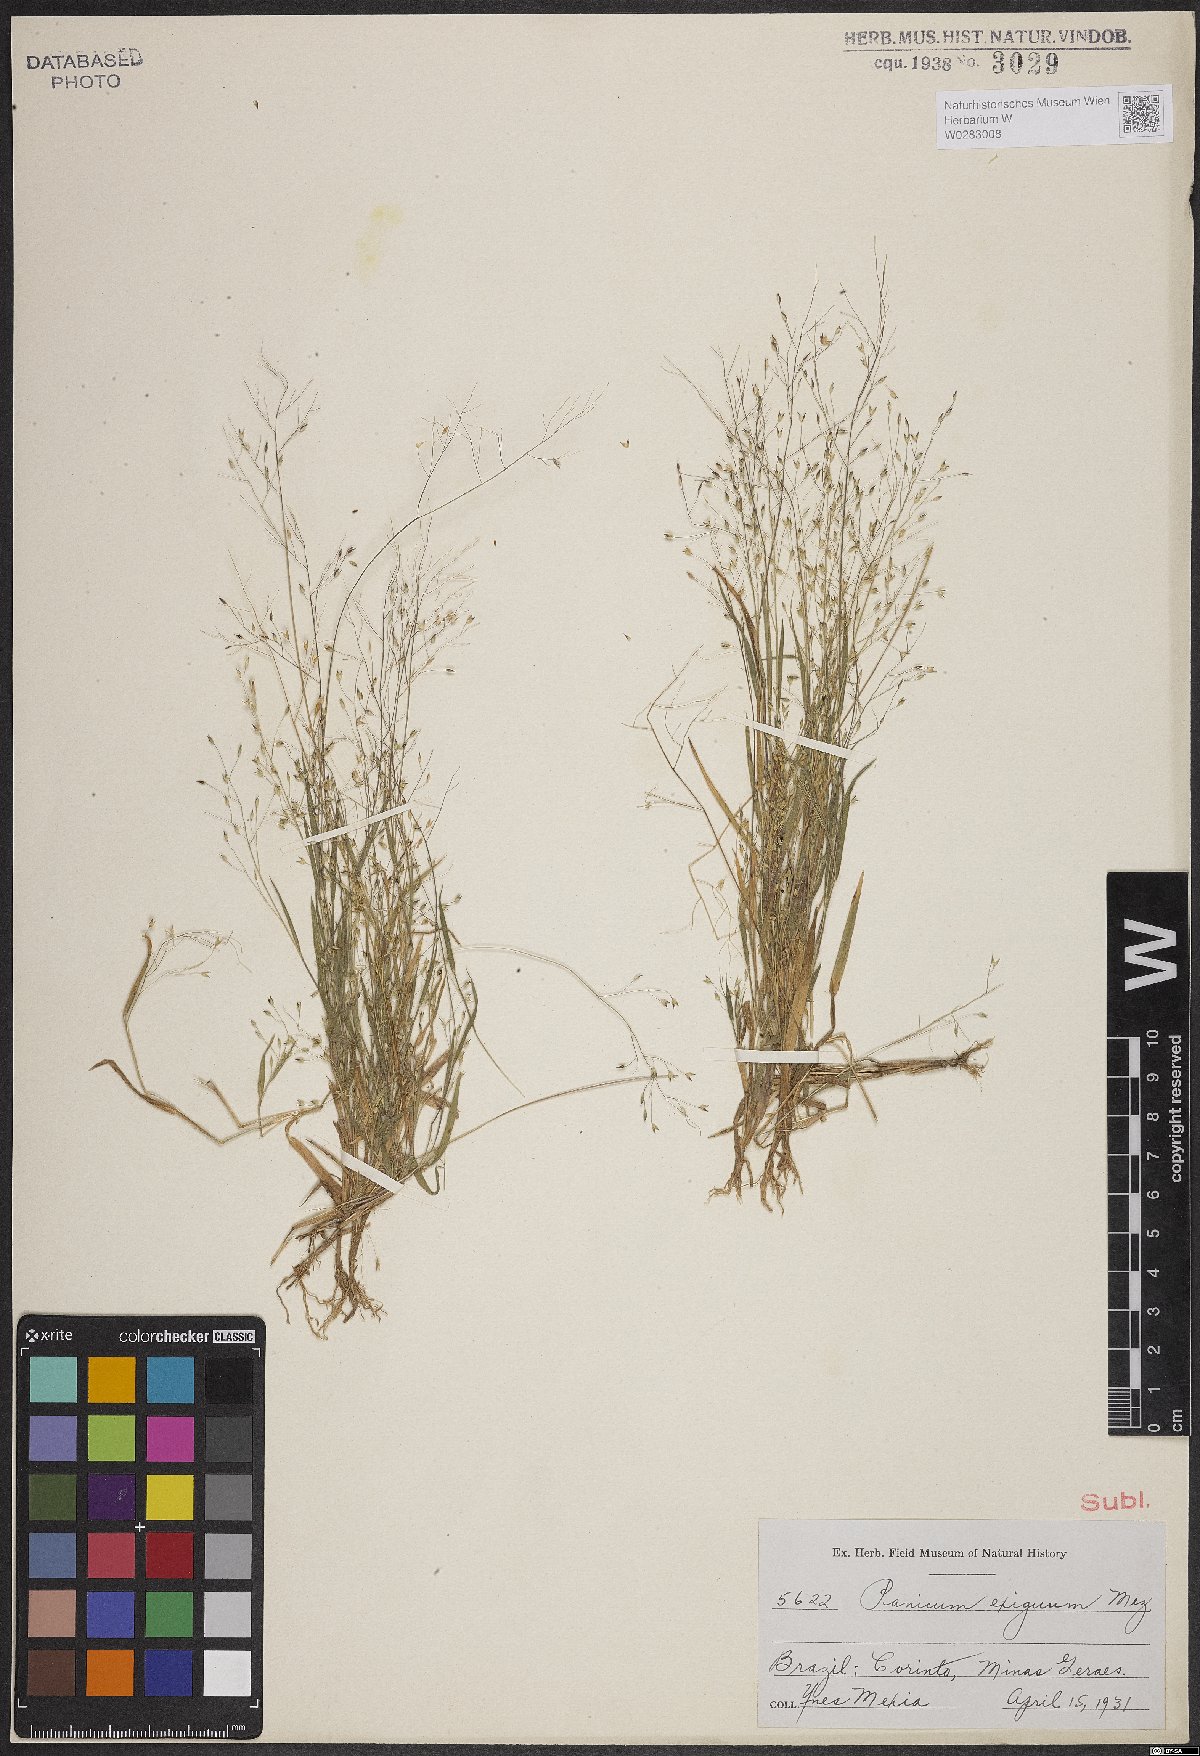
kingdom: Plantae
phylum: Tracheophyta
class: Liliopsida
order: Poales
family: Poaceae
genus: Panicum
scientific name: Panicum exiguum
